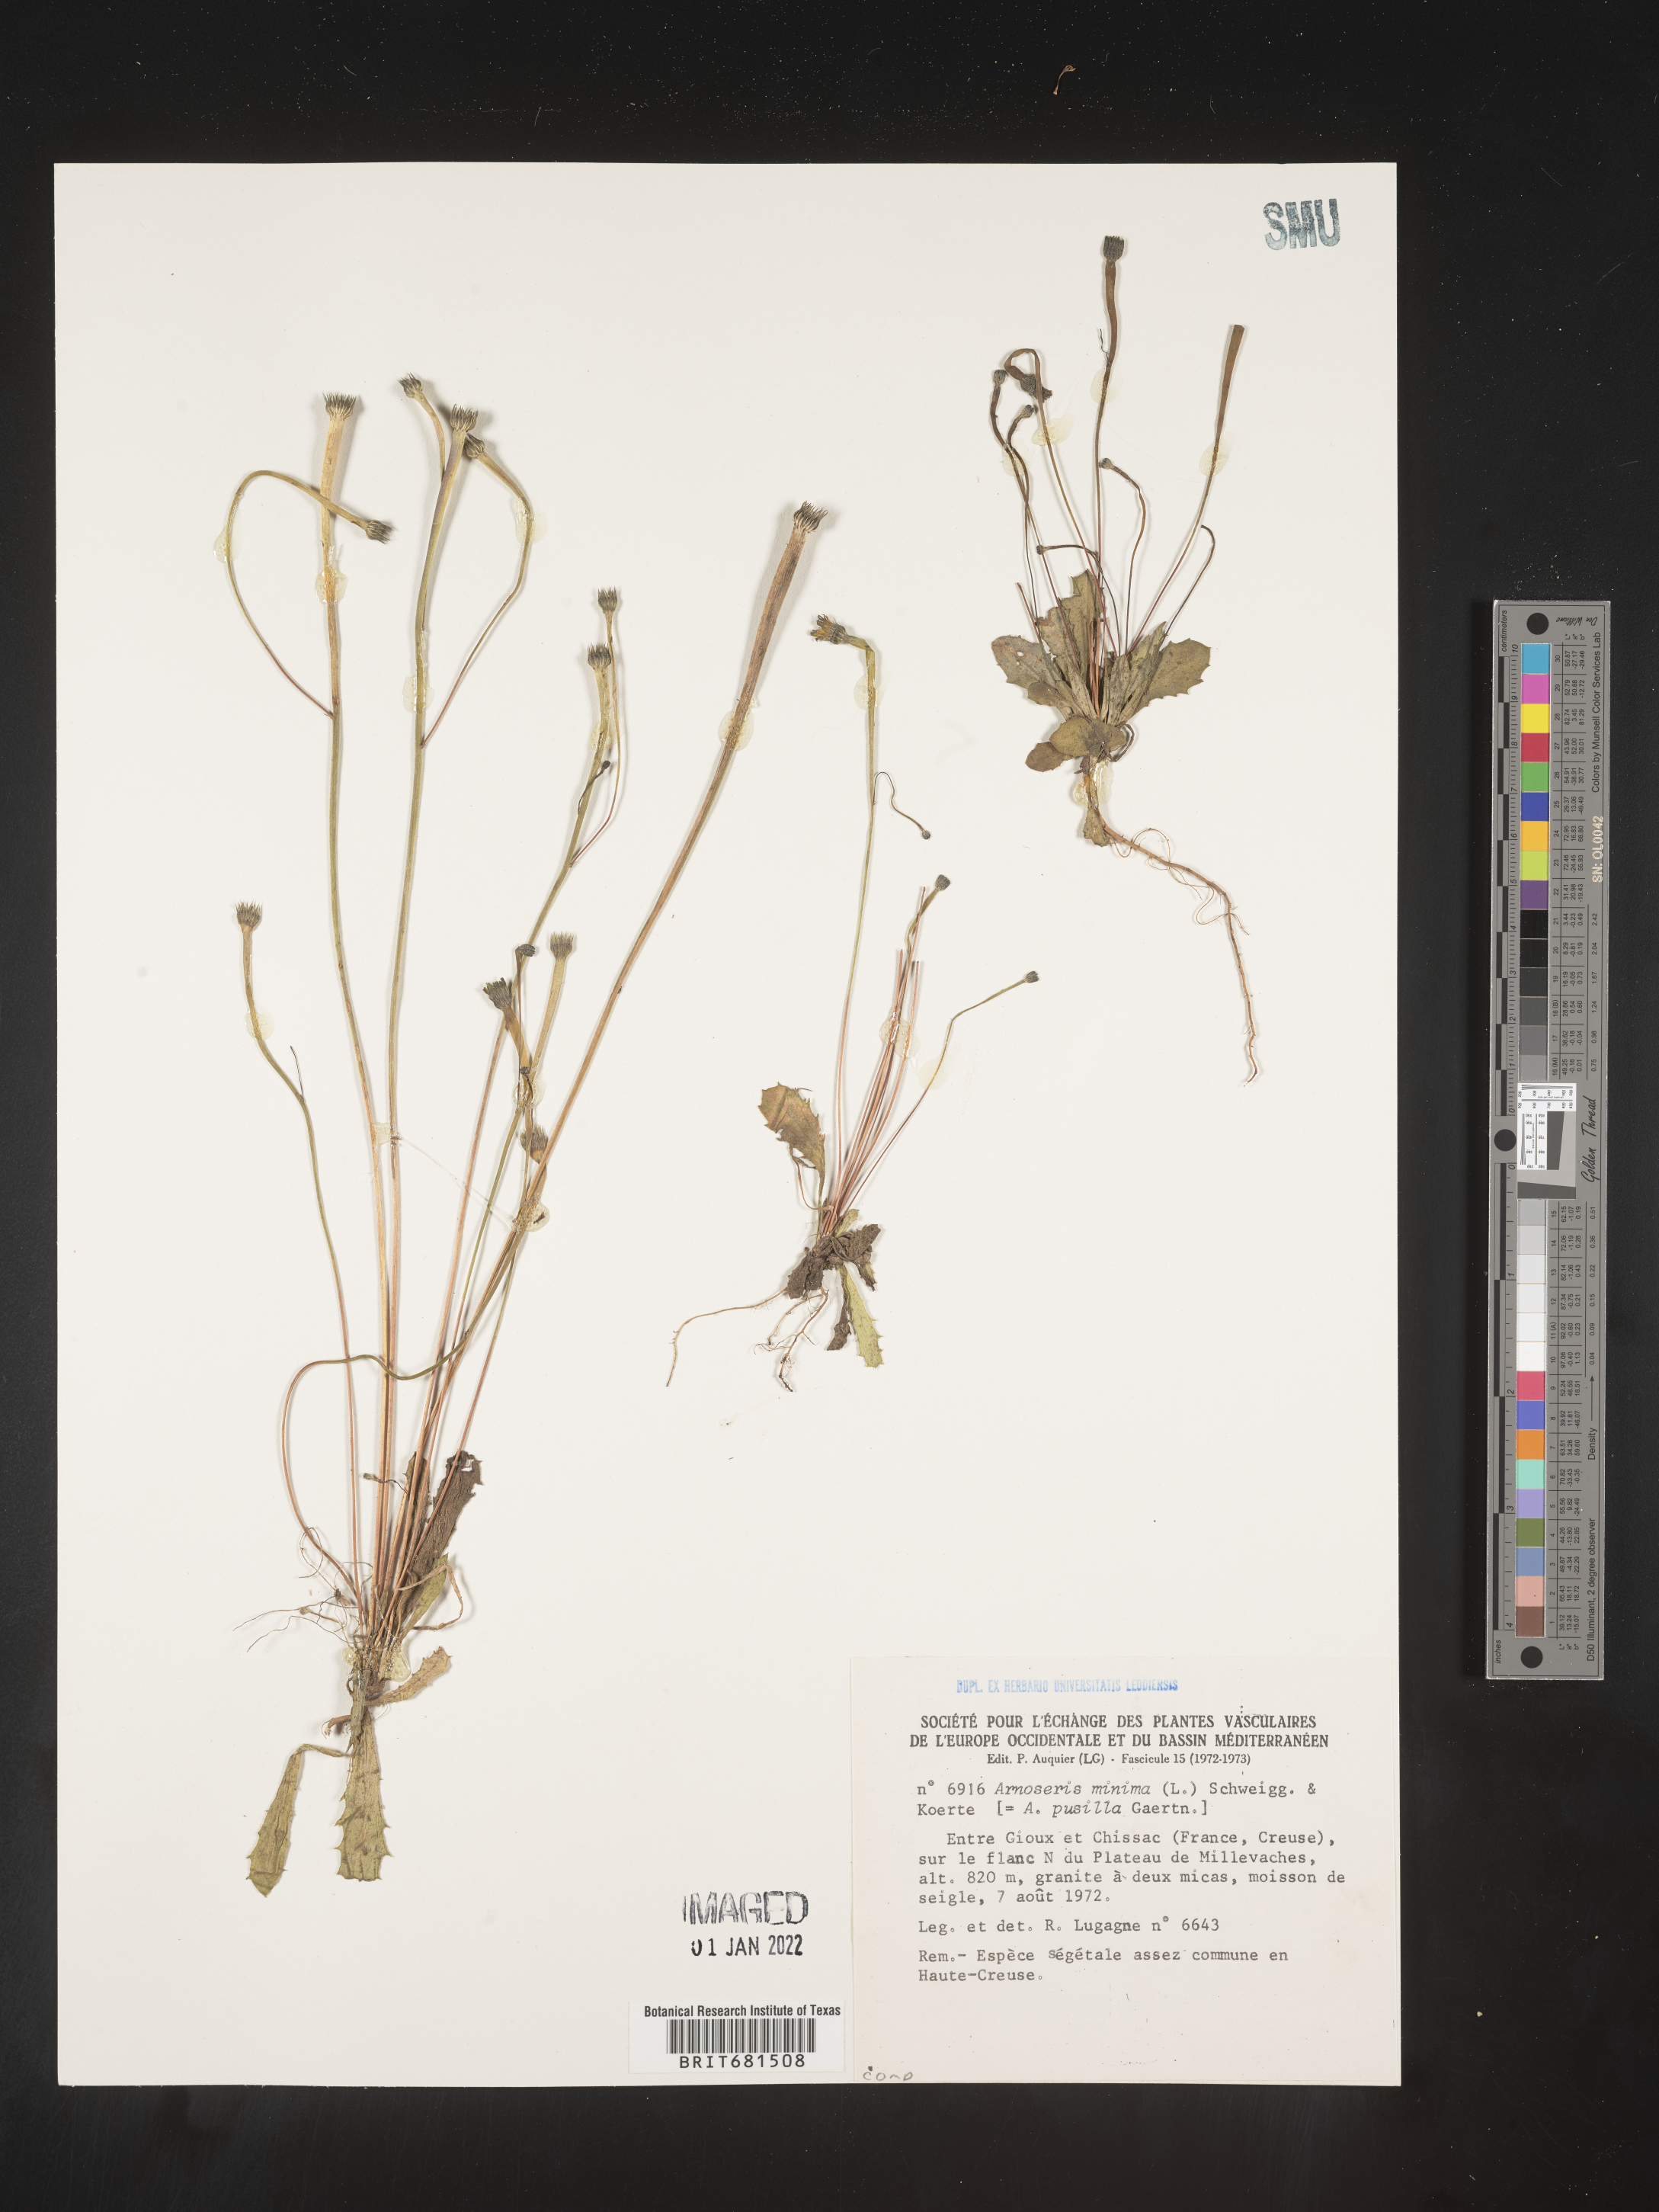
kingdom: Plantae
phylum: Tracheophyta
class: Magnoliopsida
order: Asterales
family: Asteraceae
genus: Arnoseris
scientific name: Arnoseris
